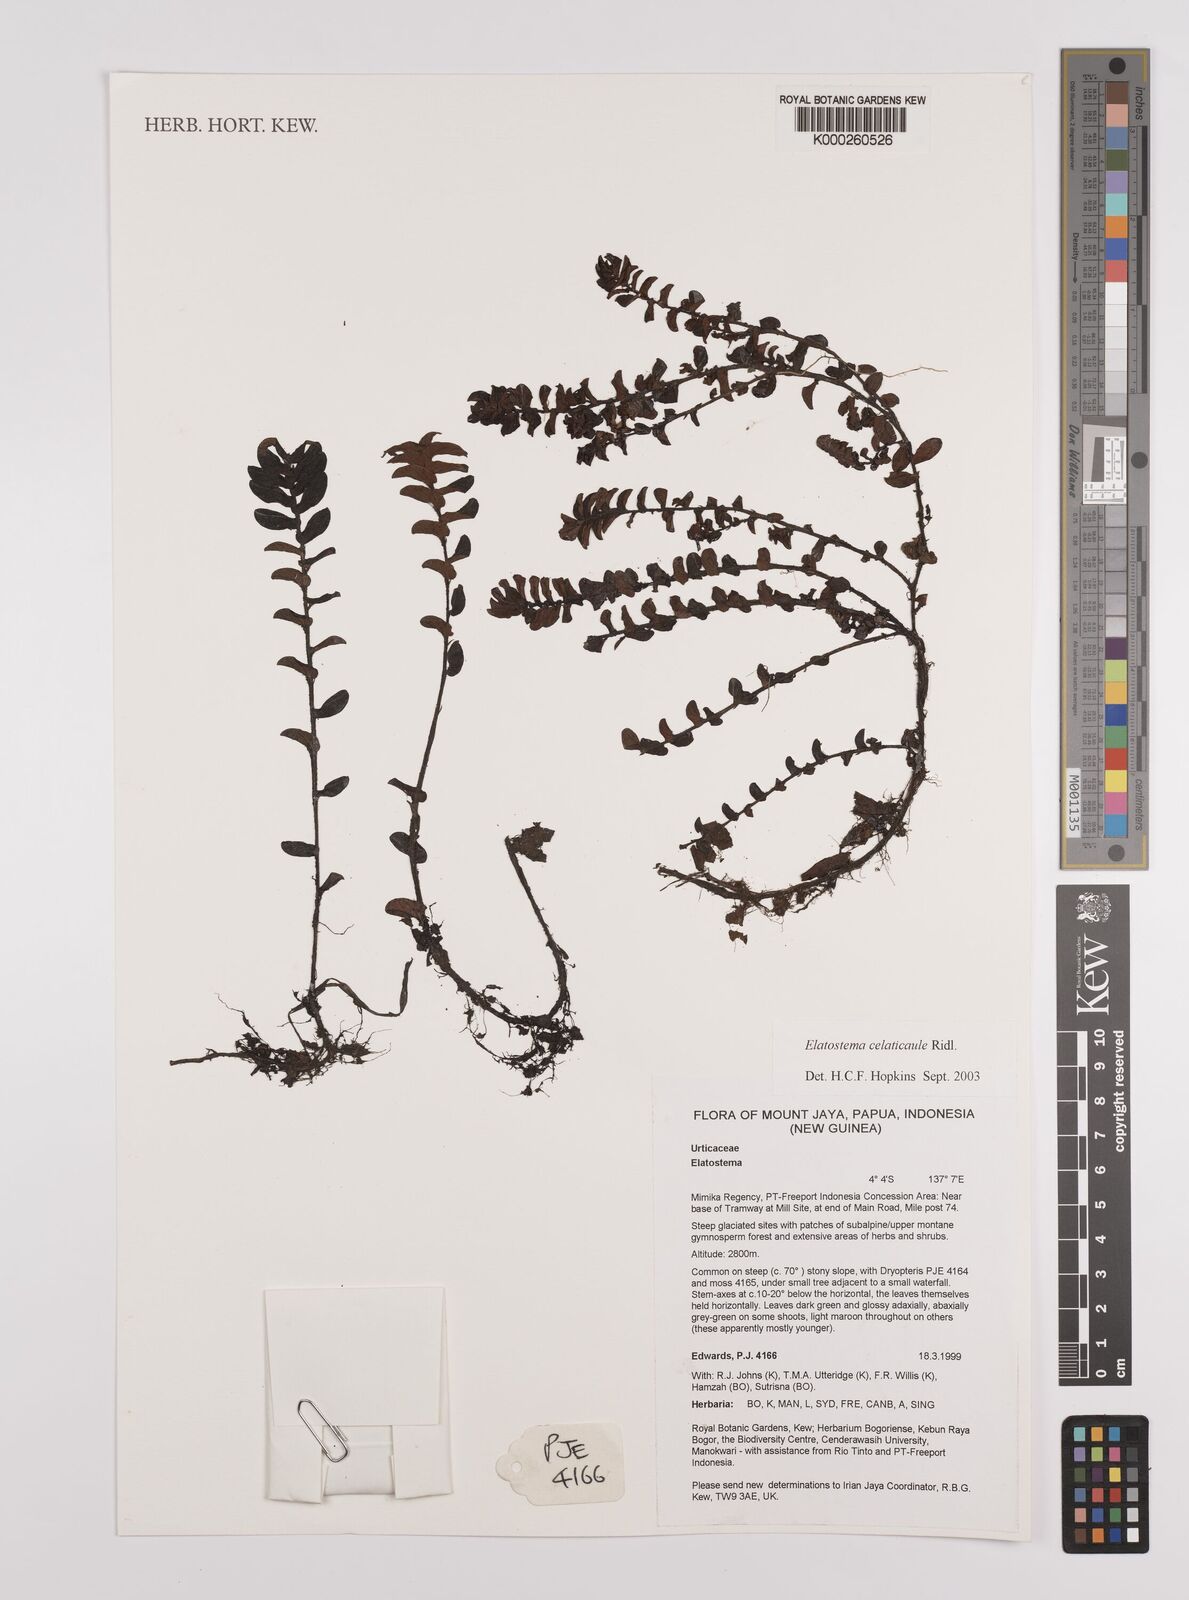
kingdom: Plantae
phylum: Tracheophyta
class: Magnoliopsida
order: Rosales
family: Urticaceae
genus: Elatostema
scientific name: Elatostema celaticaule
